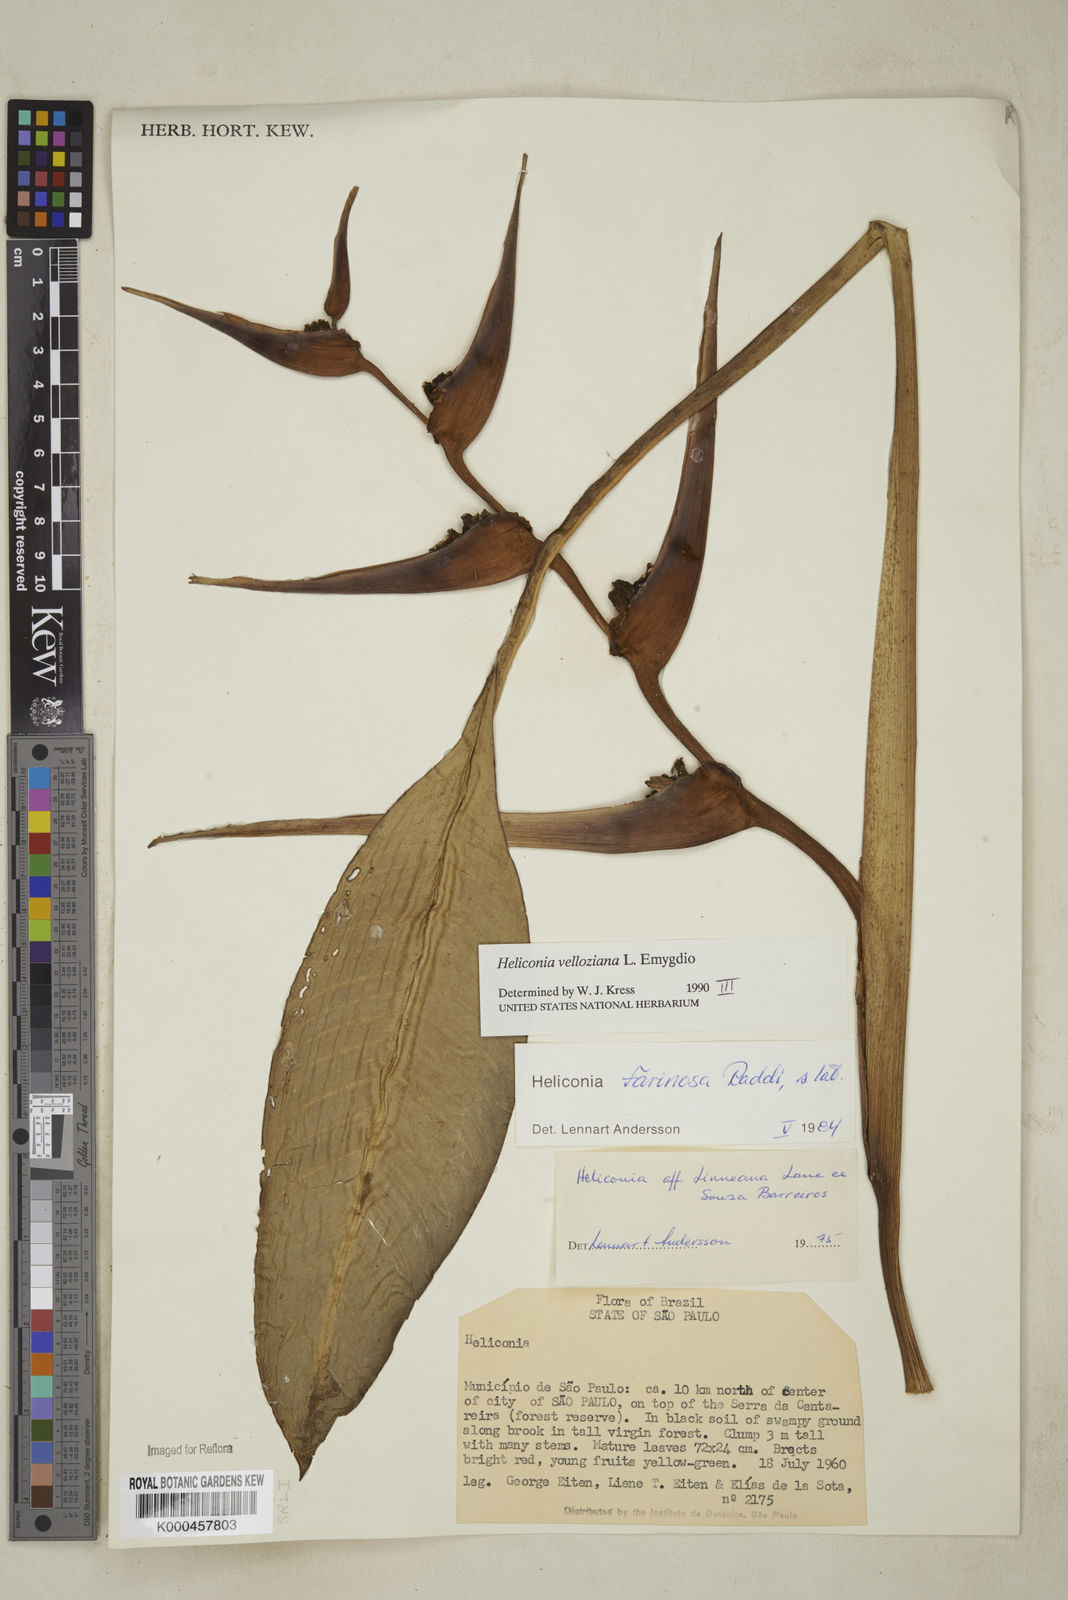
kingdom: Plantae
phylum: Tracheophyta
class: Liliopsida
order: Zingiberales
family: Heliconiaceae
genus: Heliconia
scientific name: Heliconia farinosa
